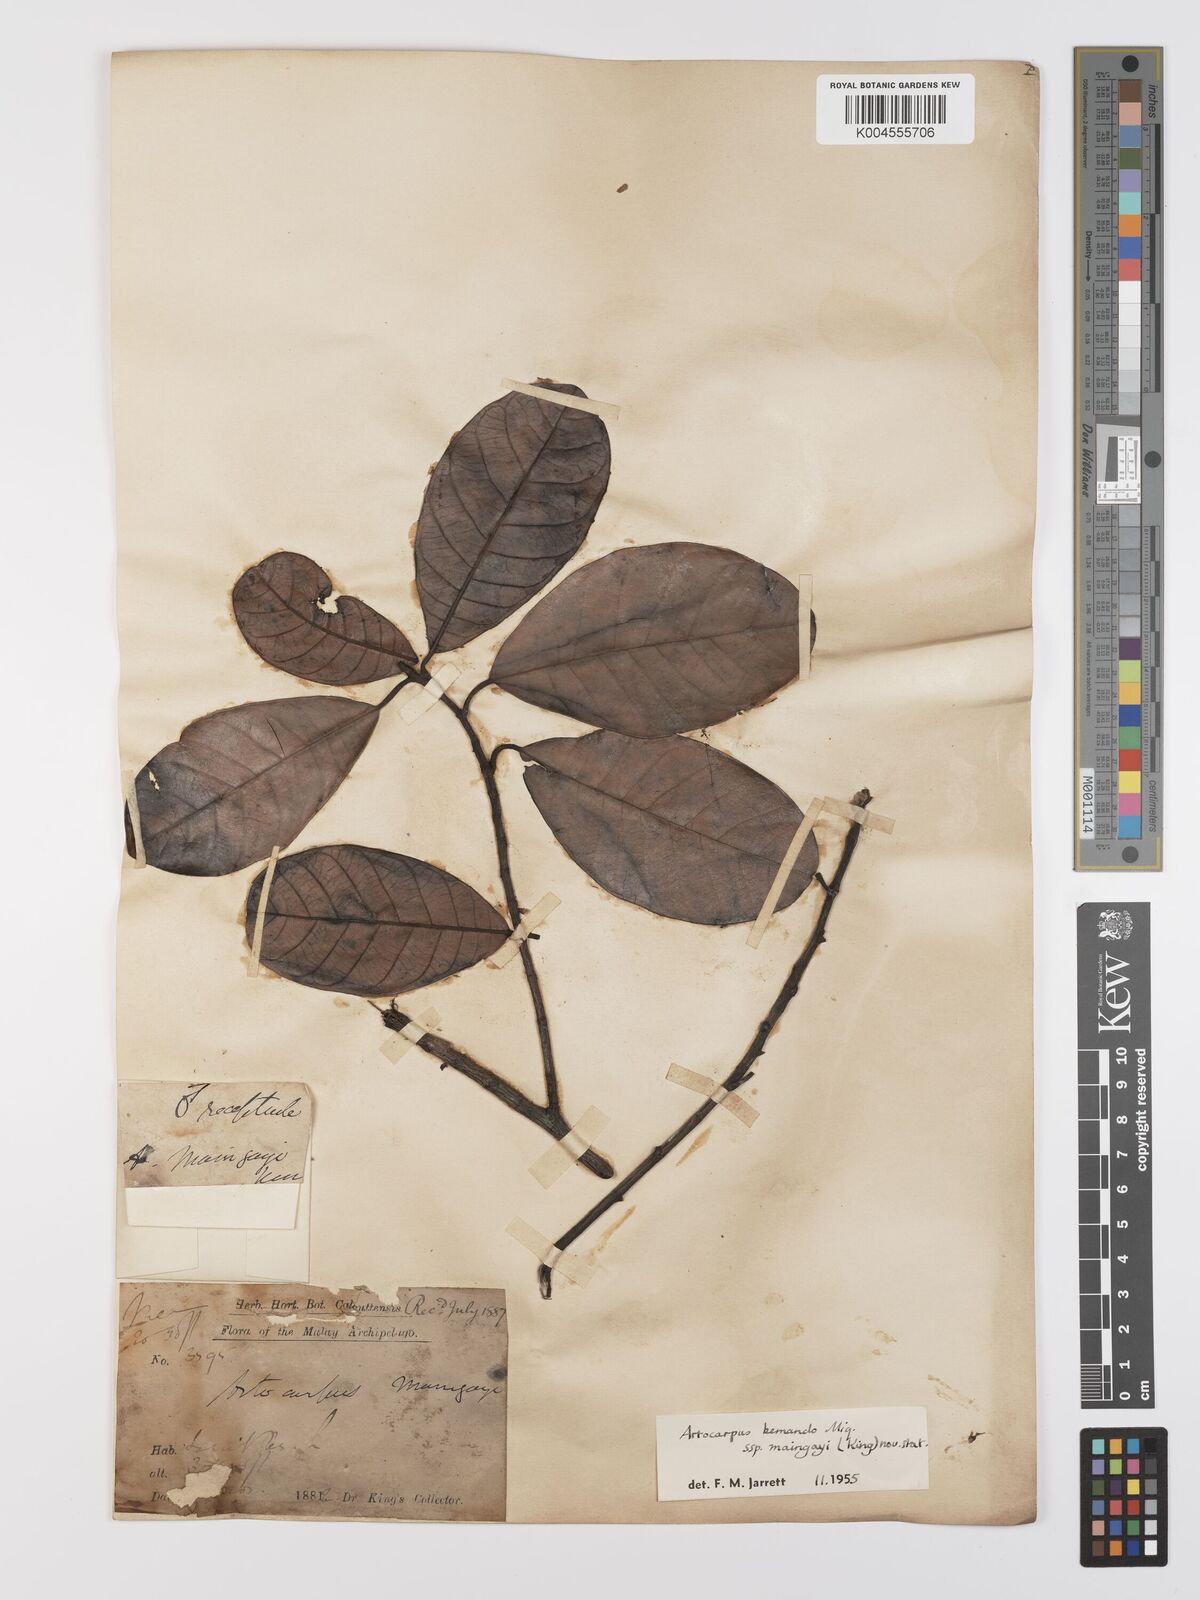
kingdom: Plantae
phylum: Tracheophyta
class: Magnoliopsida
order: Rosales
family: Moraceae
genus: Artocarpus
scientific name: Artocarpus kemando
